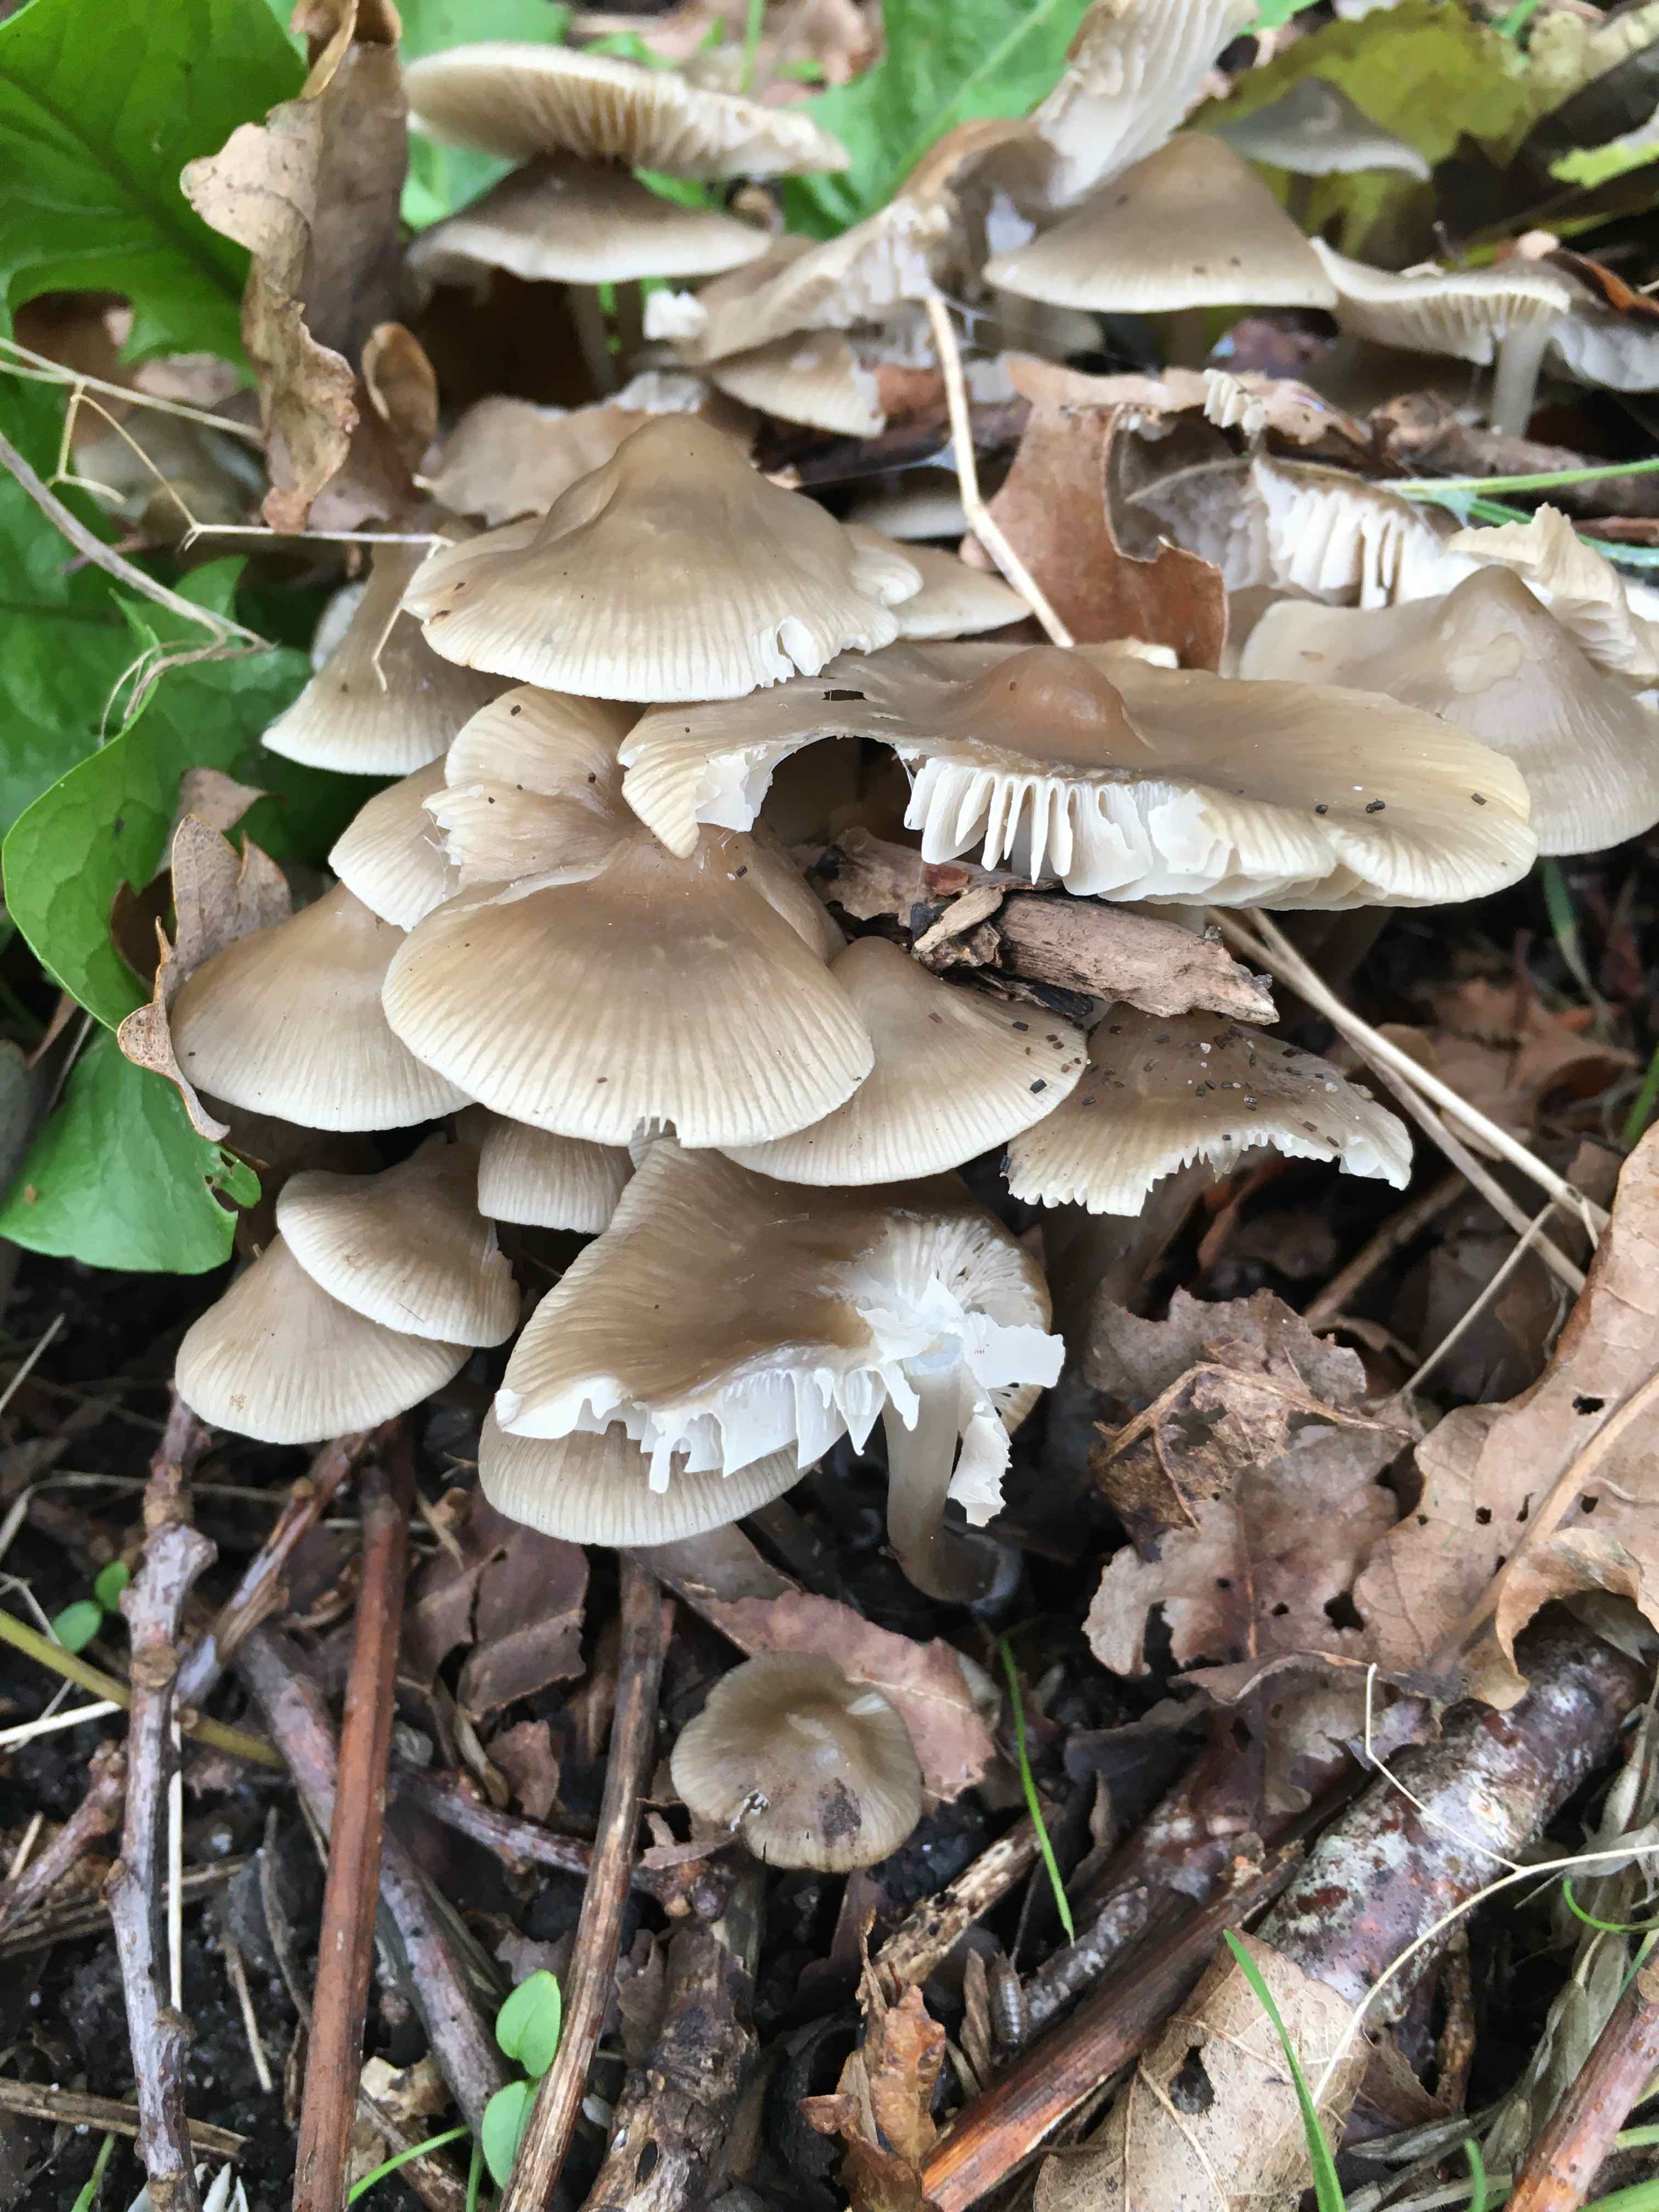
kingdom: Fungi
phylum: Basidiomycota
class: Agaricomycetes
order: Agaricales
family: Mycenaceae
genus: Mycena
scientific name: Mycena galericulata
